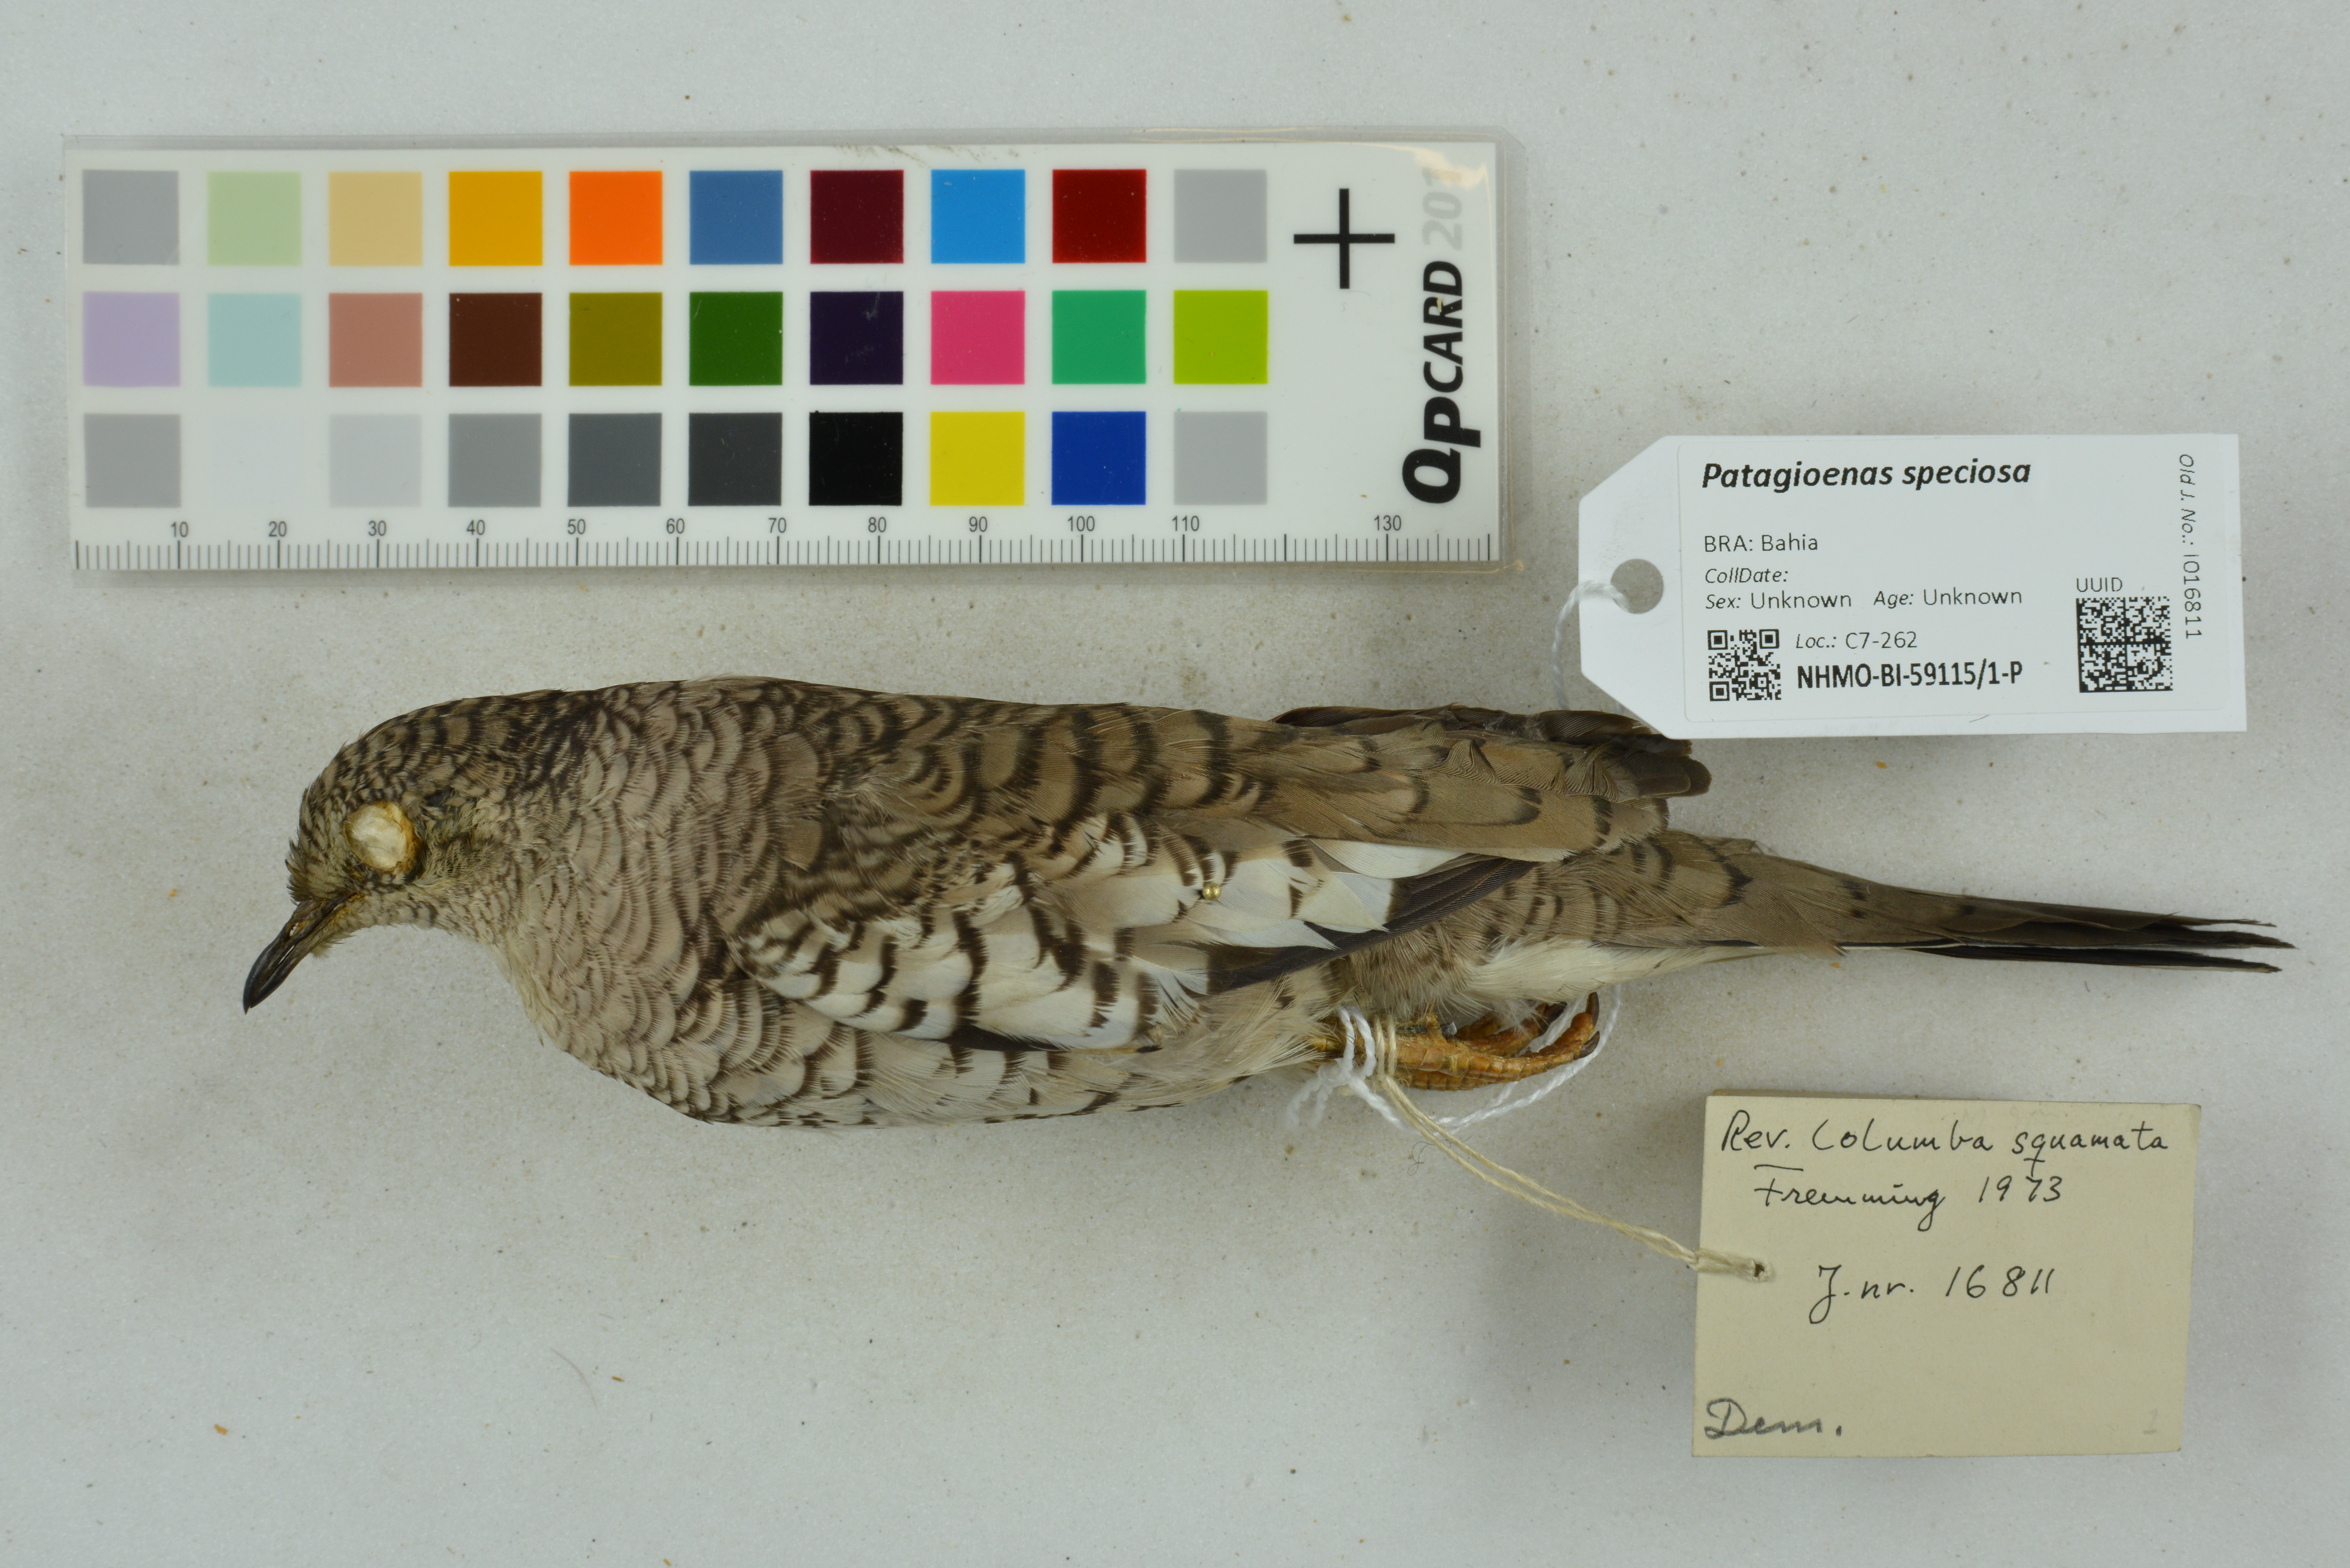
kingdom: Animalia
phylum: Chordata
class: Aves
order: Columbiformes
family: Columbidae
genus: Patagioenas
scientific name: Patagioenas speciosa
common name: Scaled pigeon
